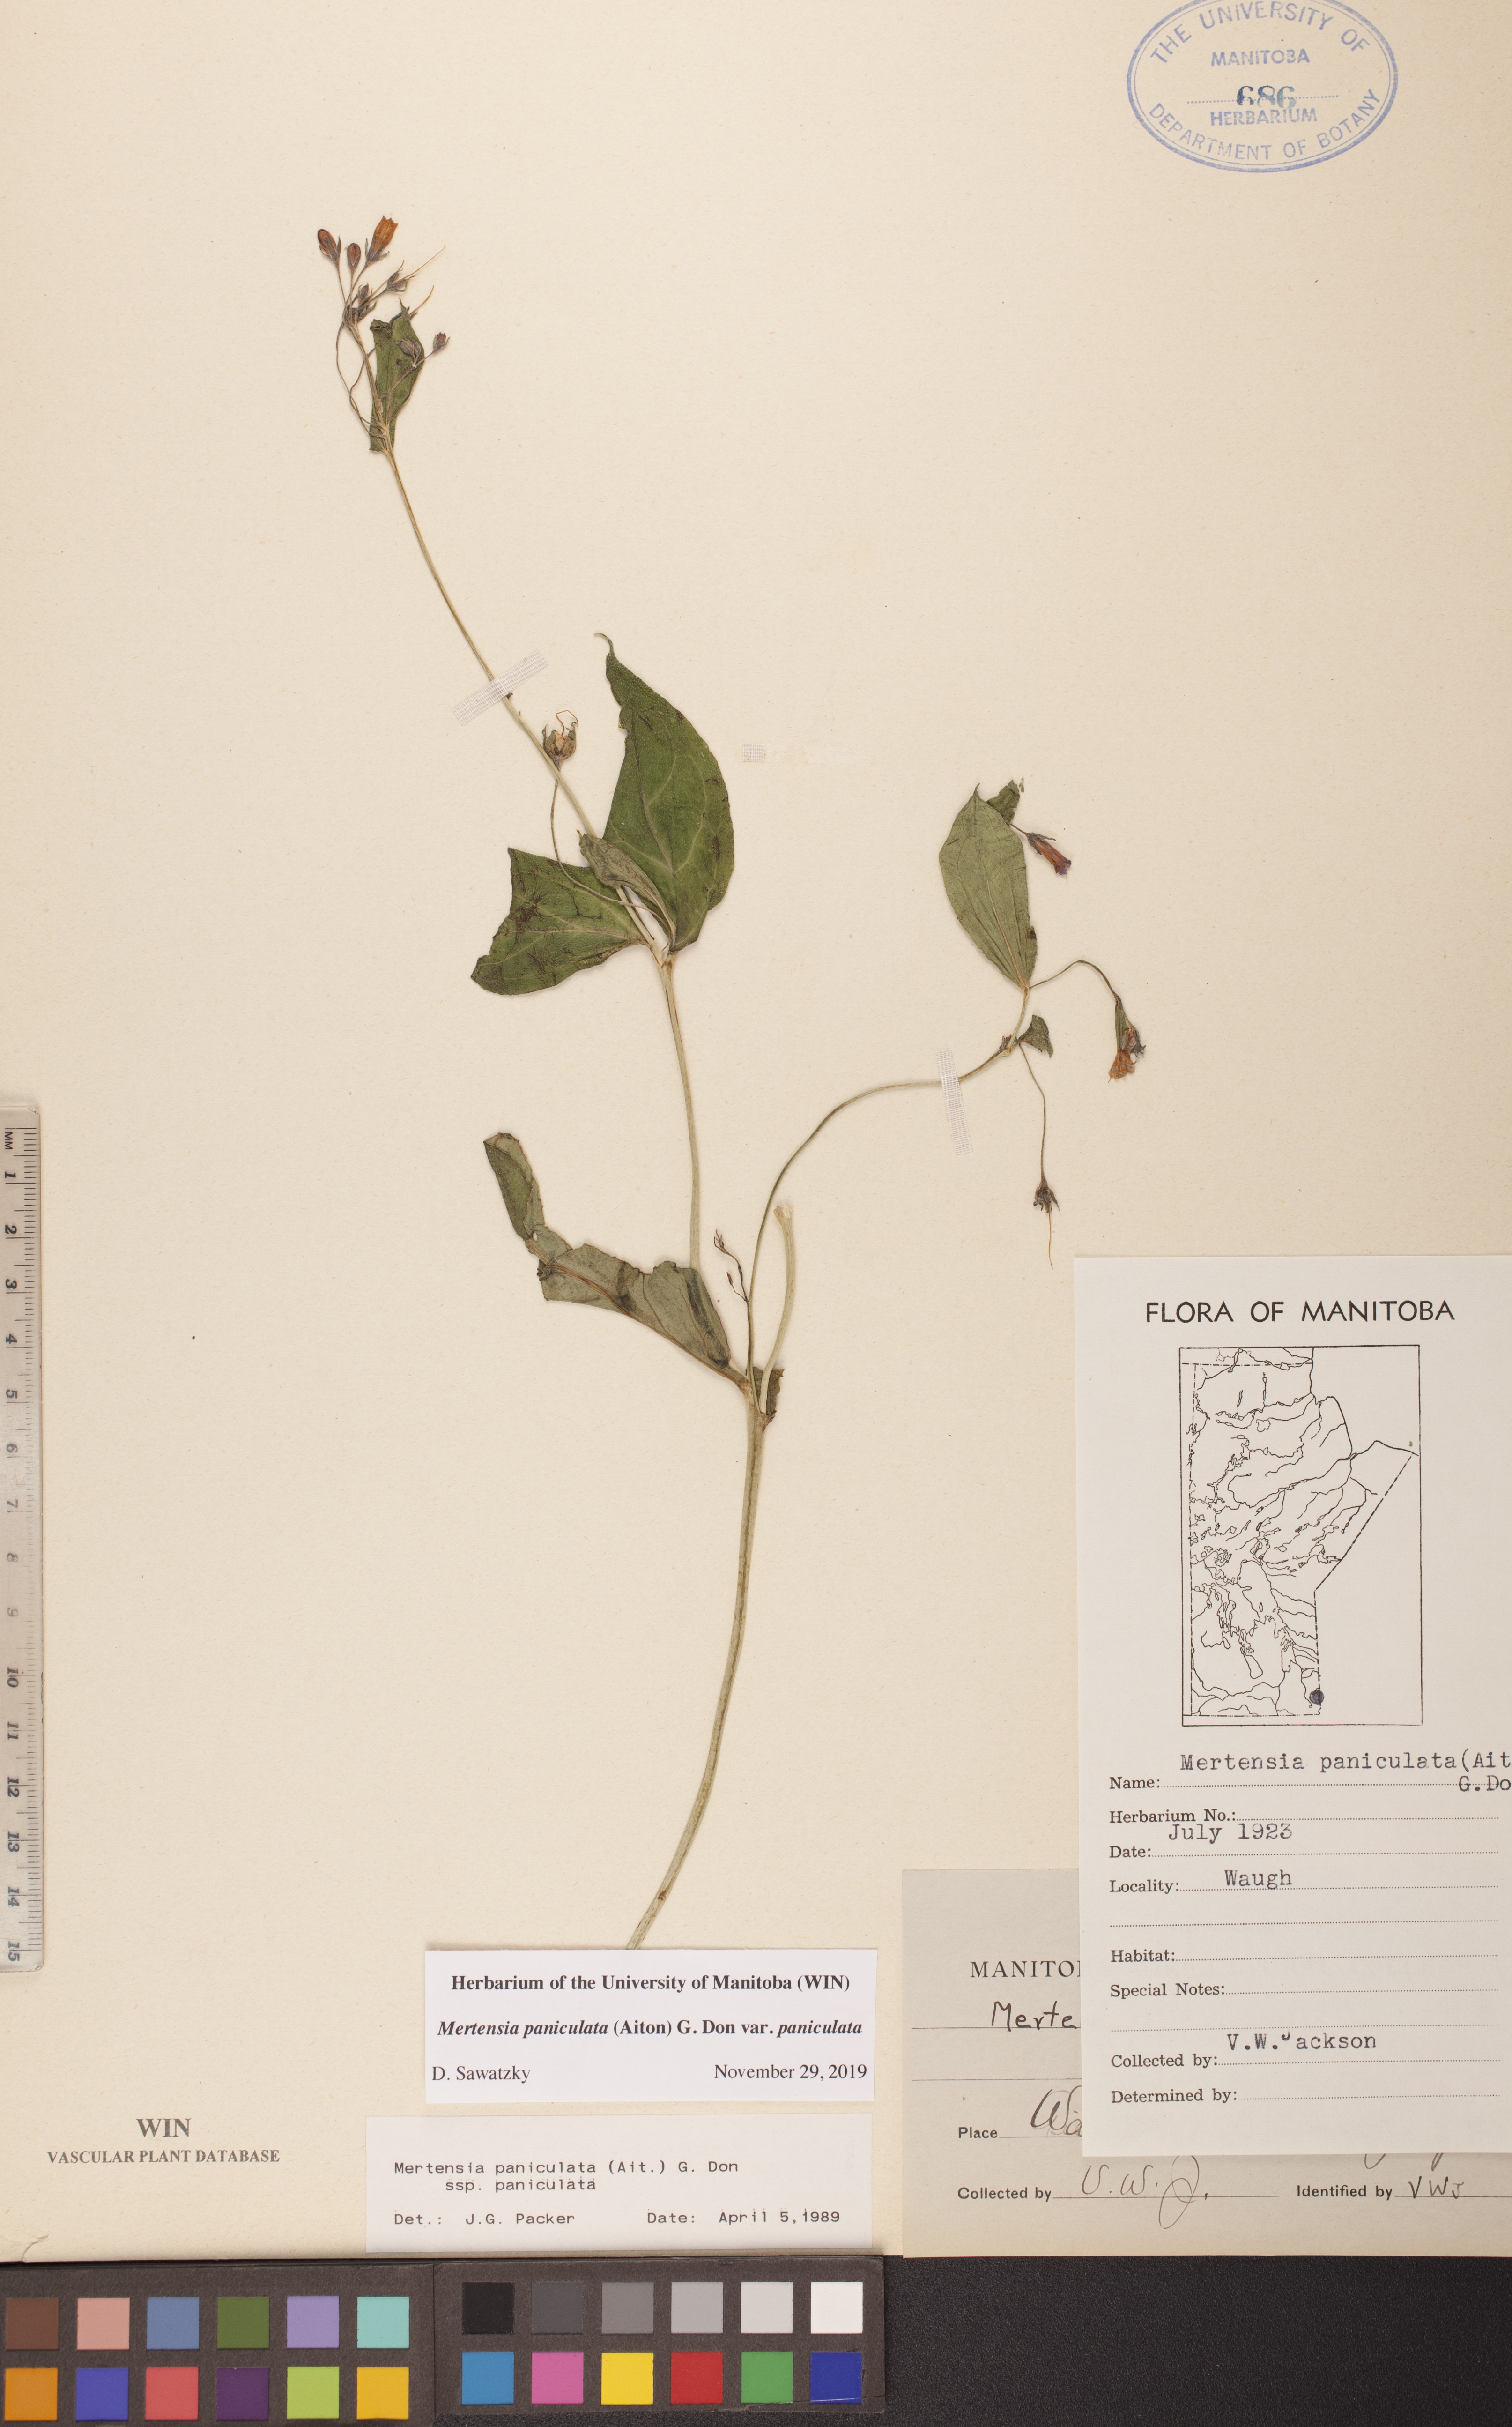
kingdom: Plantae
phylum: Tracheophyta
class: Magnoliopsida
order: Boraginales
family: Boraginaceae
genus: Mertensia
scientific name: Mertensia paniculata
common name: Panicled bluebells
